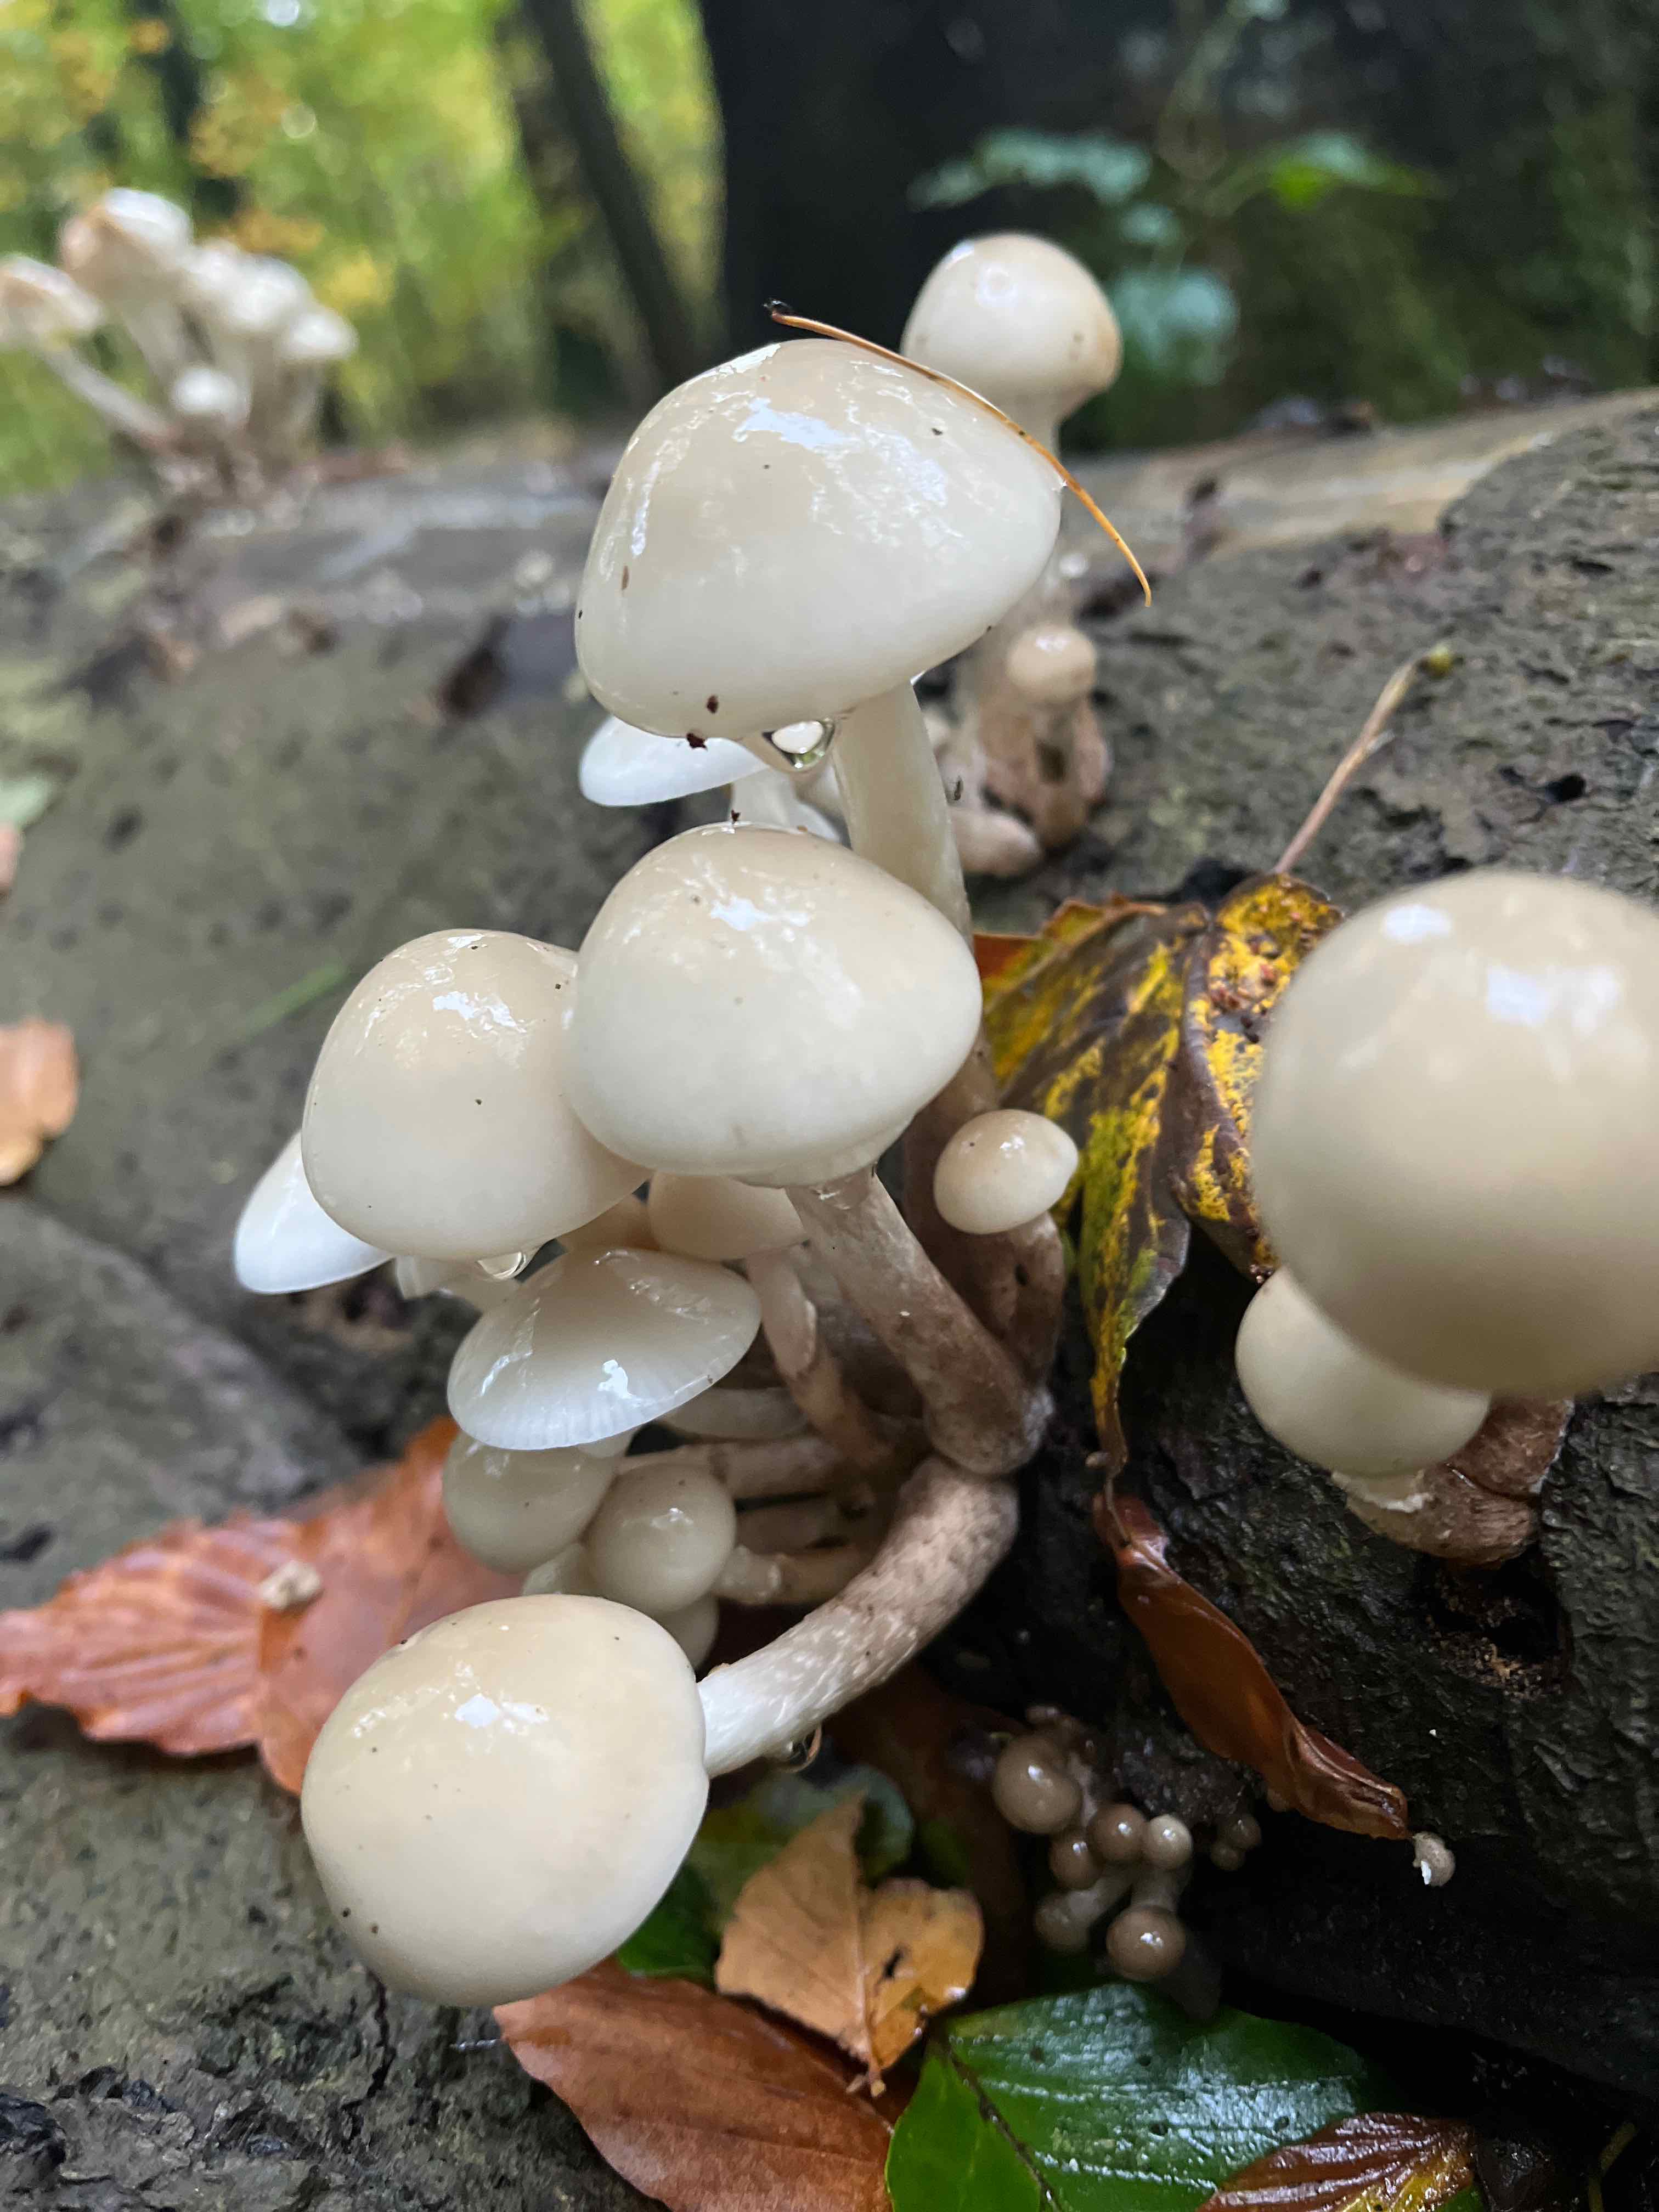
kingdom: Fungi
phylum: Basidiomycota
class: Agaricomycetes
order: Agaricales
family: Physalacriaceae
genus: Mucidula
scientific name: Mucidula mucida
